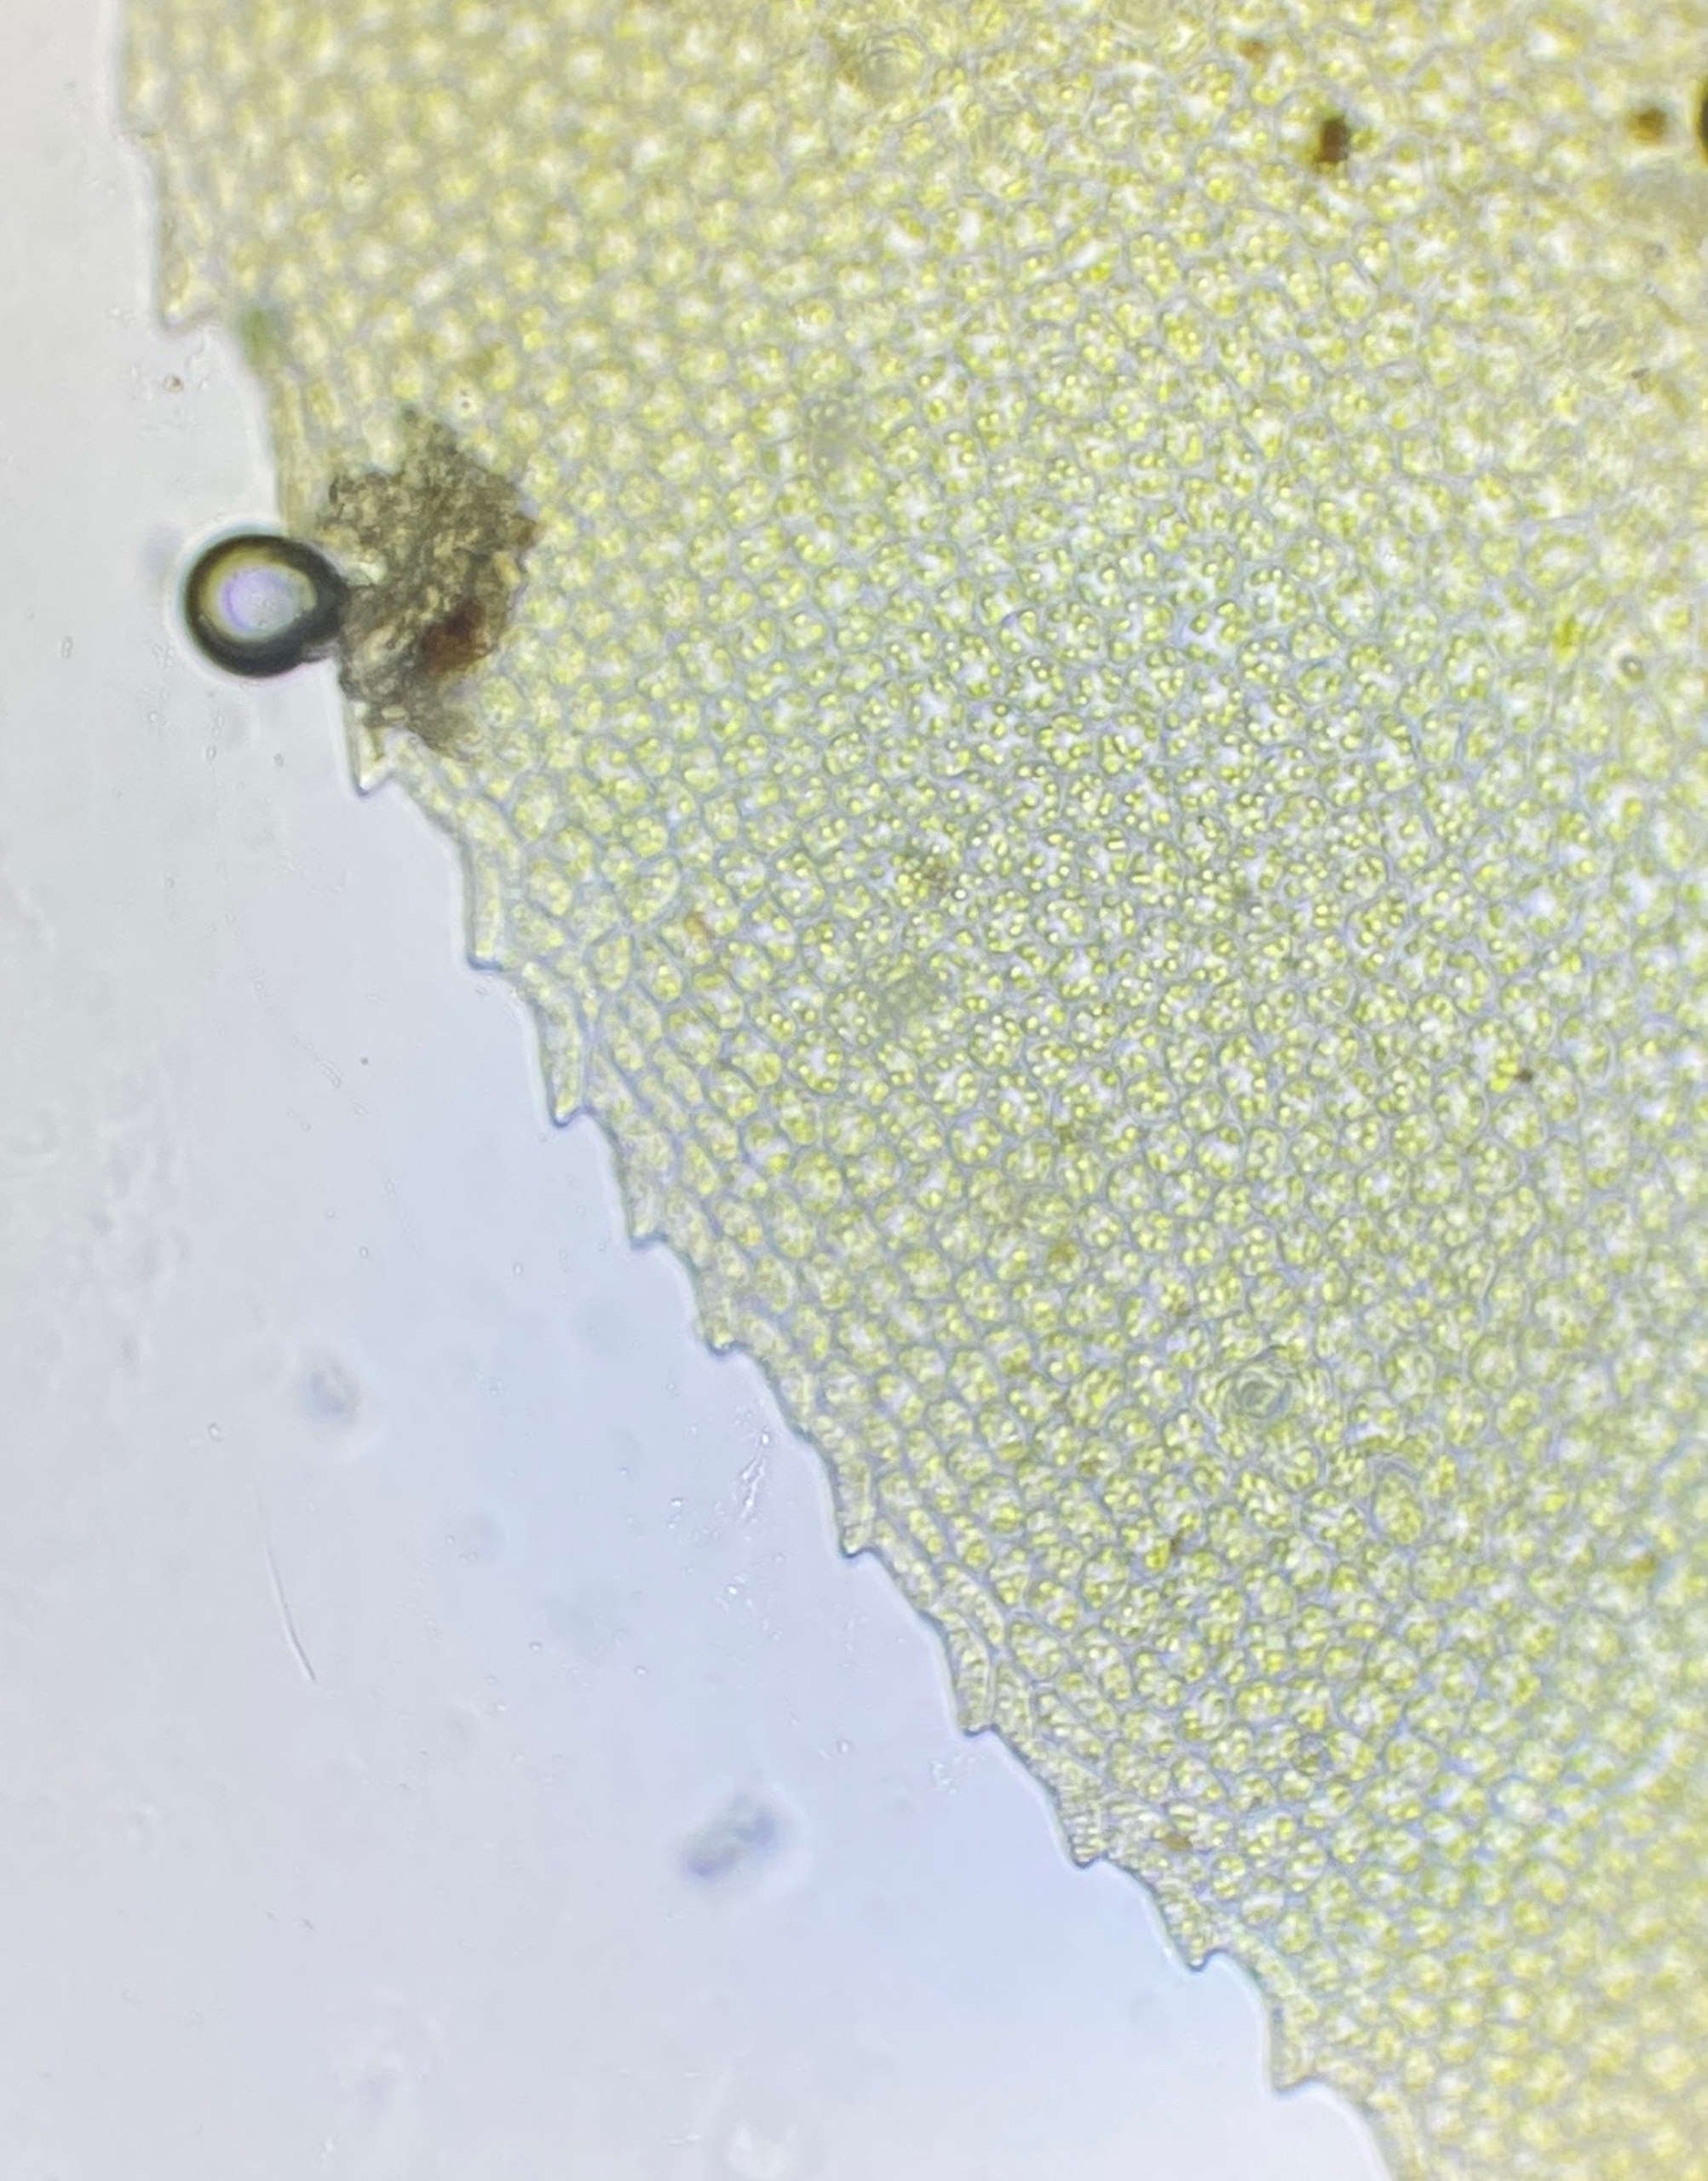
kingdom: Plantae
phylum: Bryophyta
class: Bryopsida
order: Bryales
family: Mniaceae
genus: Mnium
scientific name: Mnium stellare
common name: Indigo stjernemos
